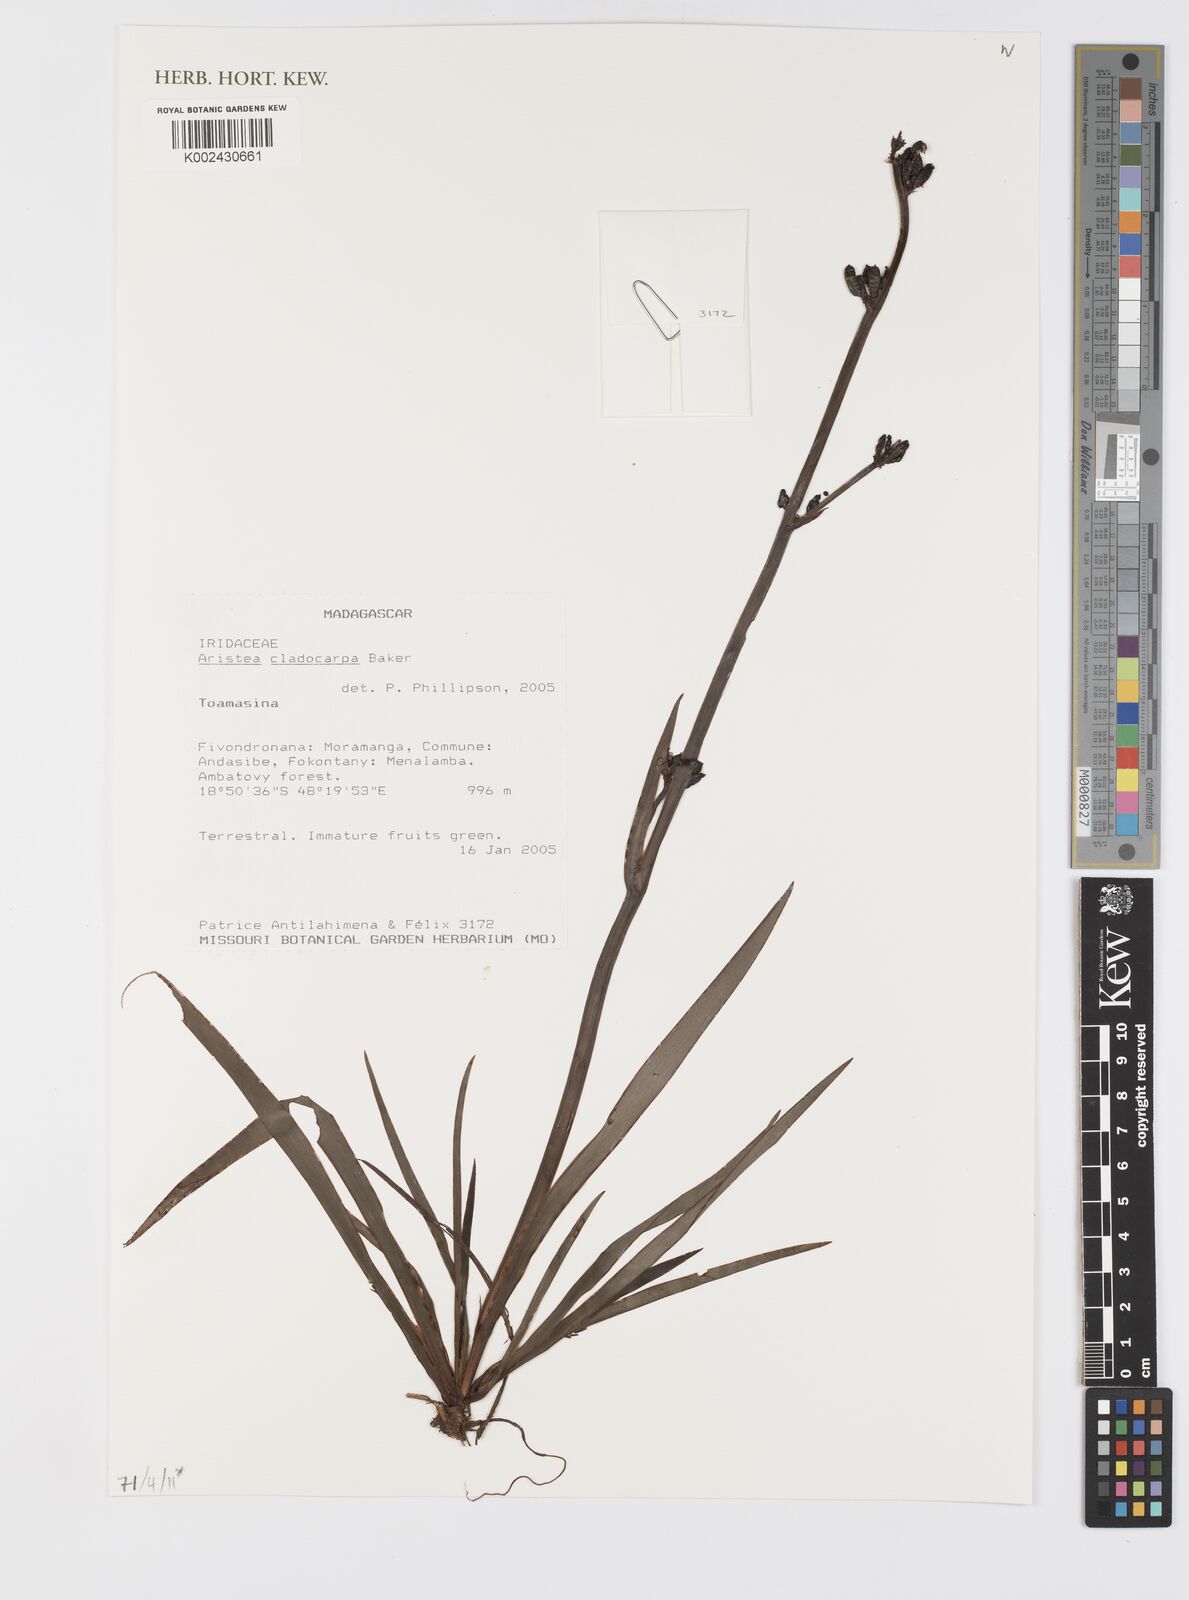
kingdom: Plantae
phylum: Tracheophyta
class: Liliopsida
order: Asparagales
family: Iridaceae
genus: Aristea
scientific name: Aristea cladocarpa
